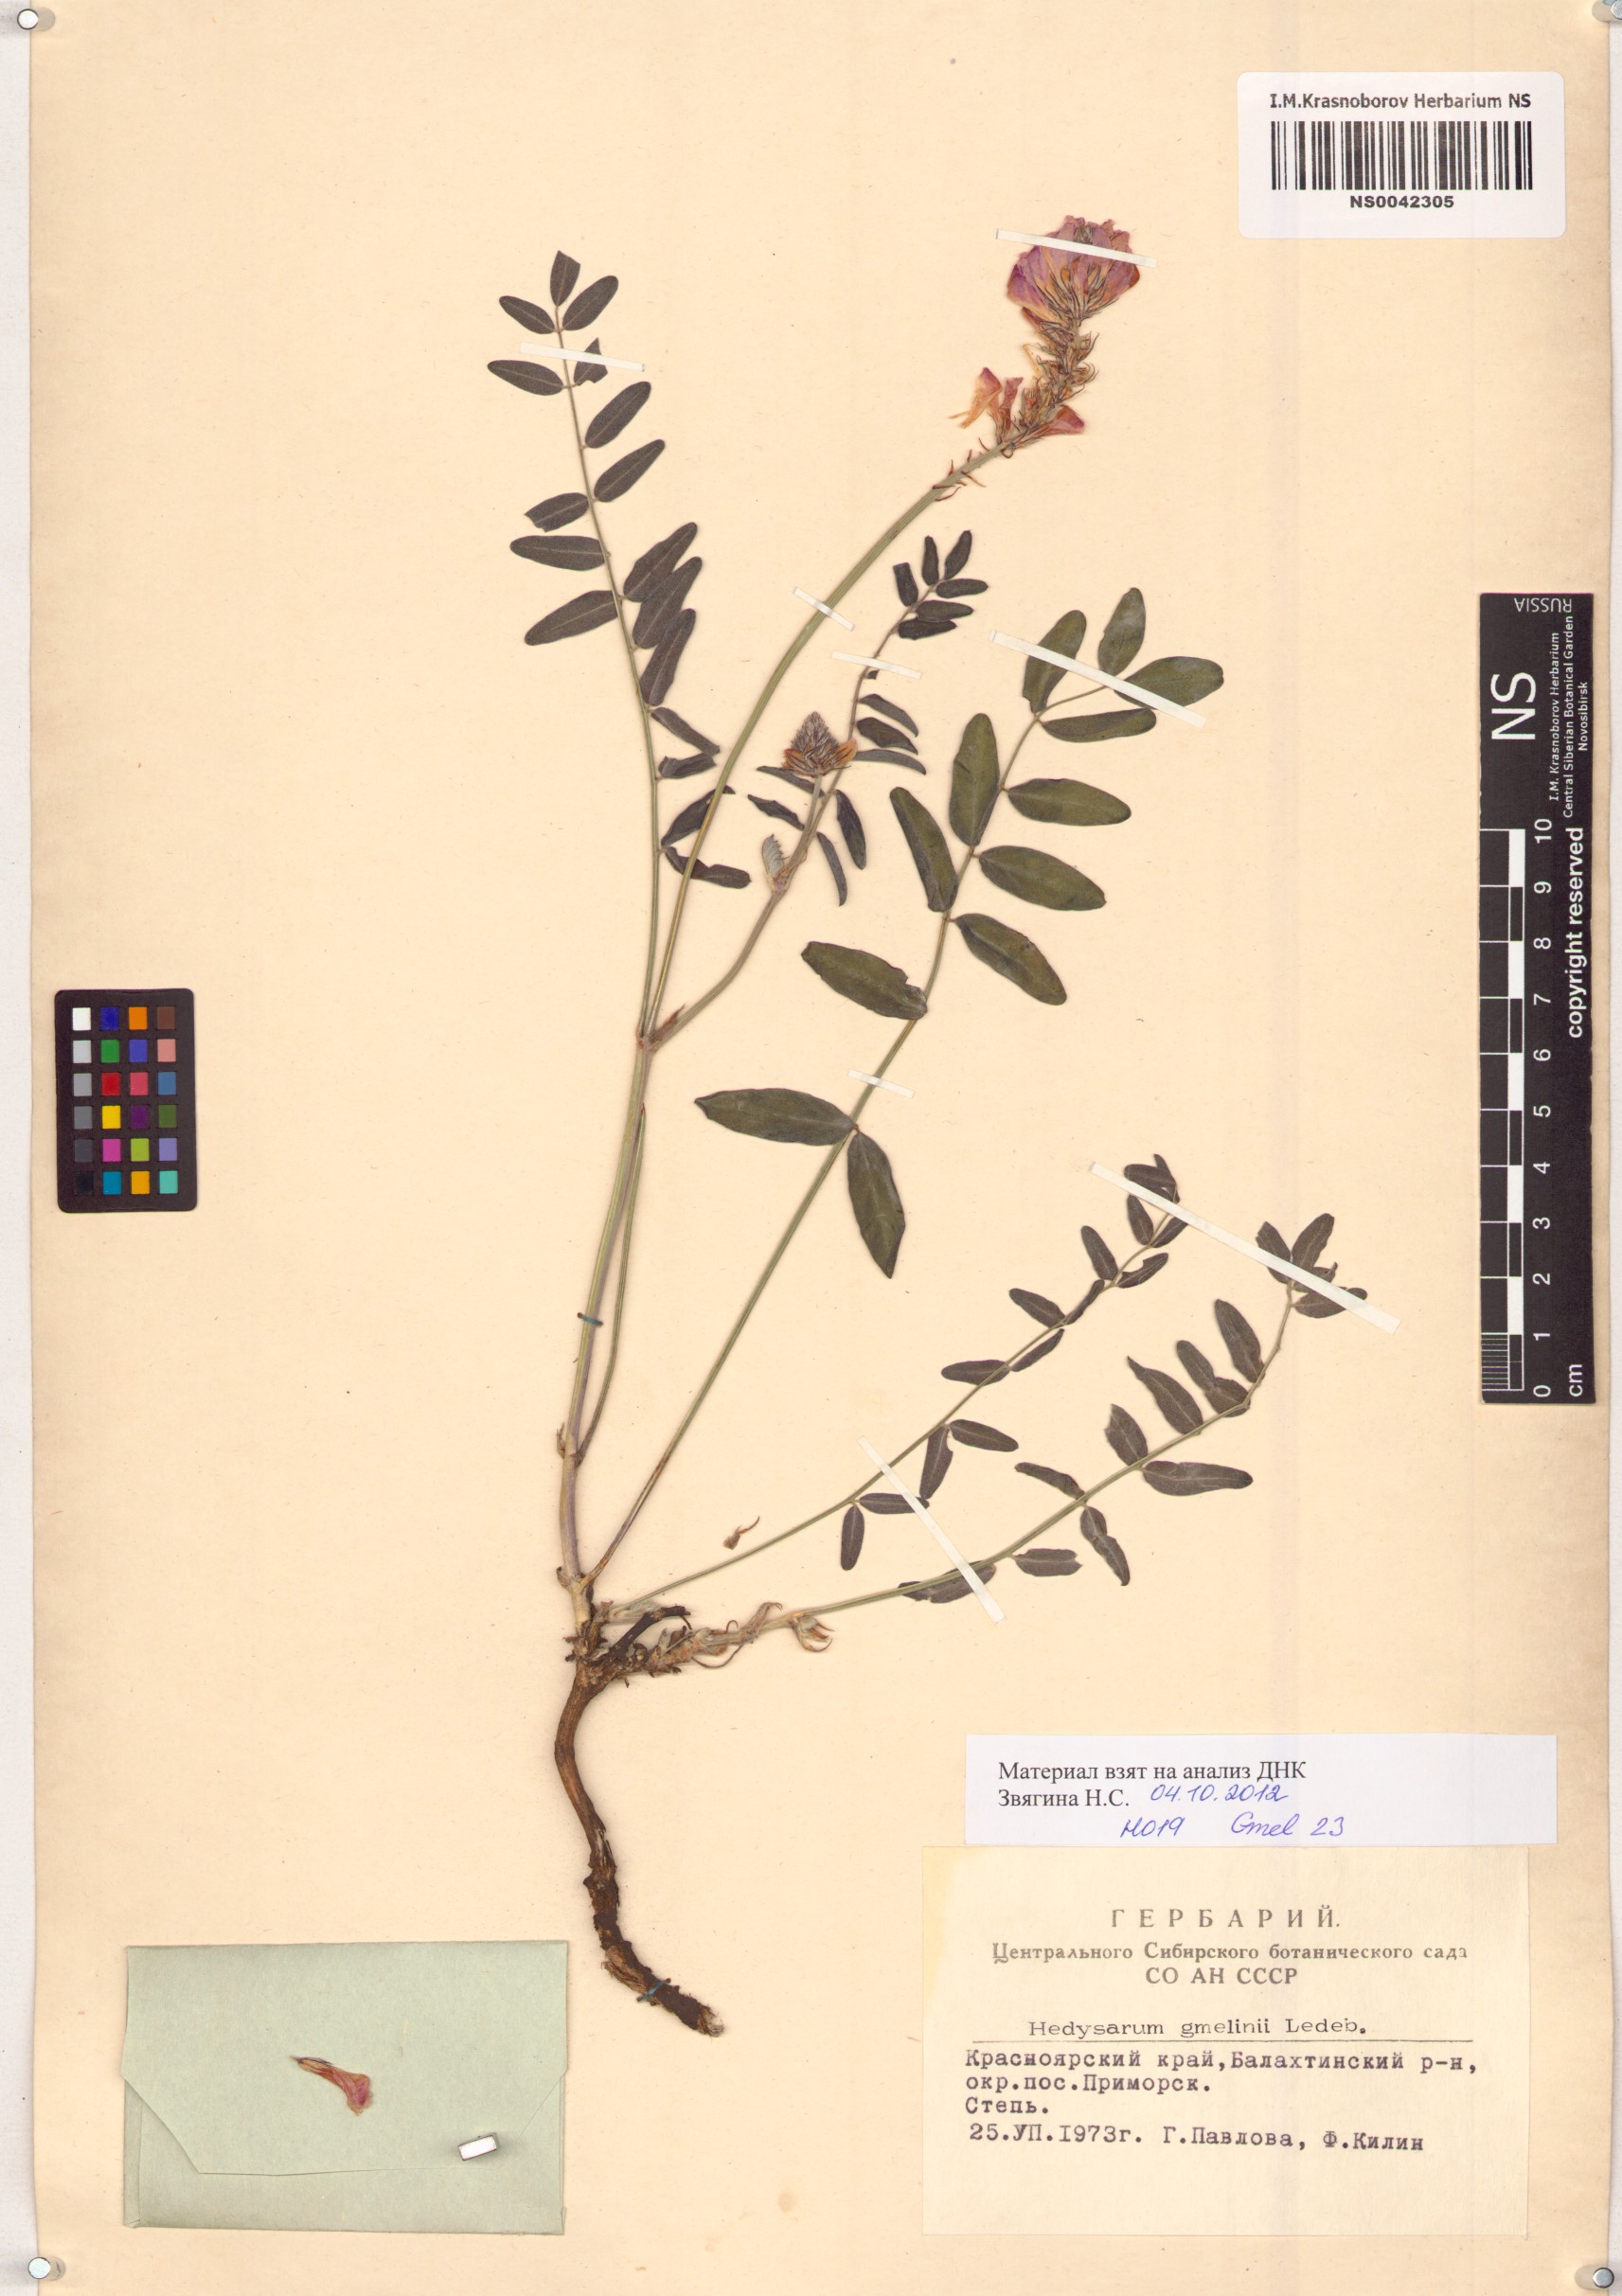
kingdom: Plantae
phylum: Tracheophyta
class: Magnoliopsida
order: Fabales
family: Fabaceae
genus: Hedysarum
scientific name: Hedysarum gmelinii
